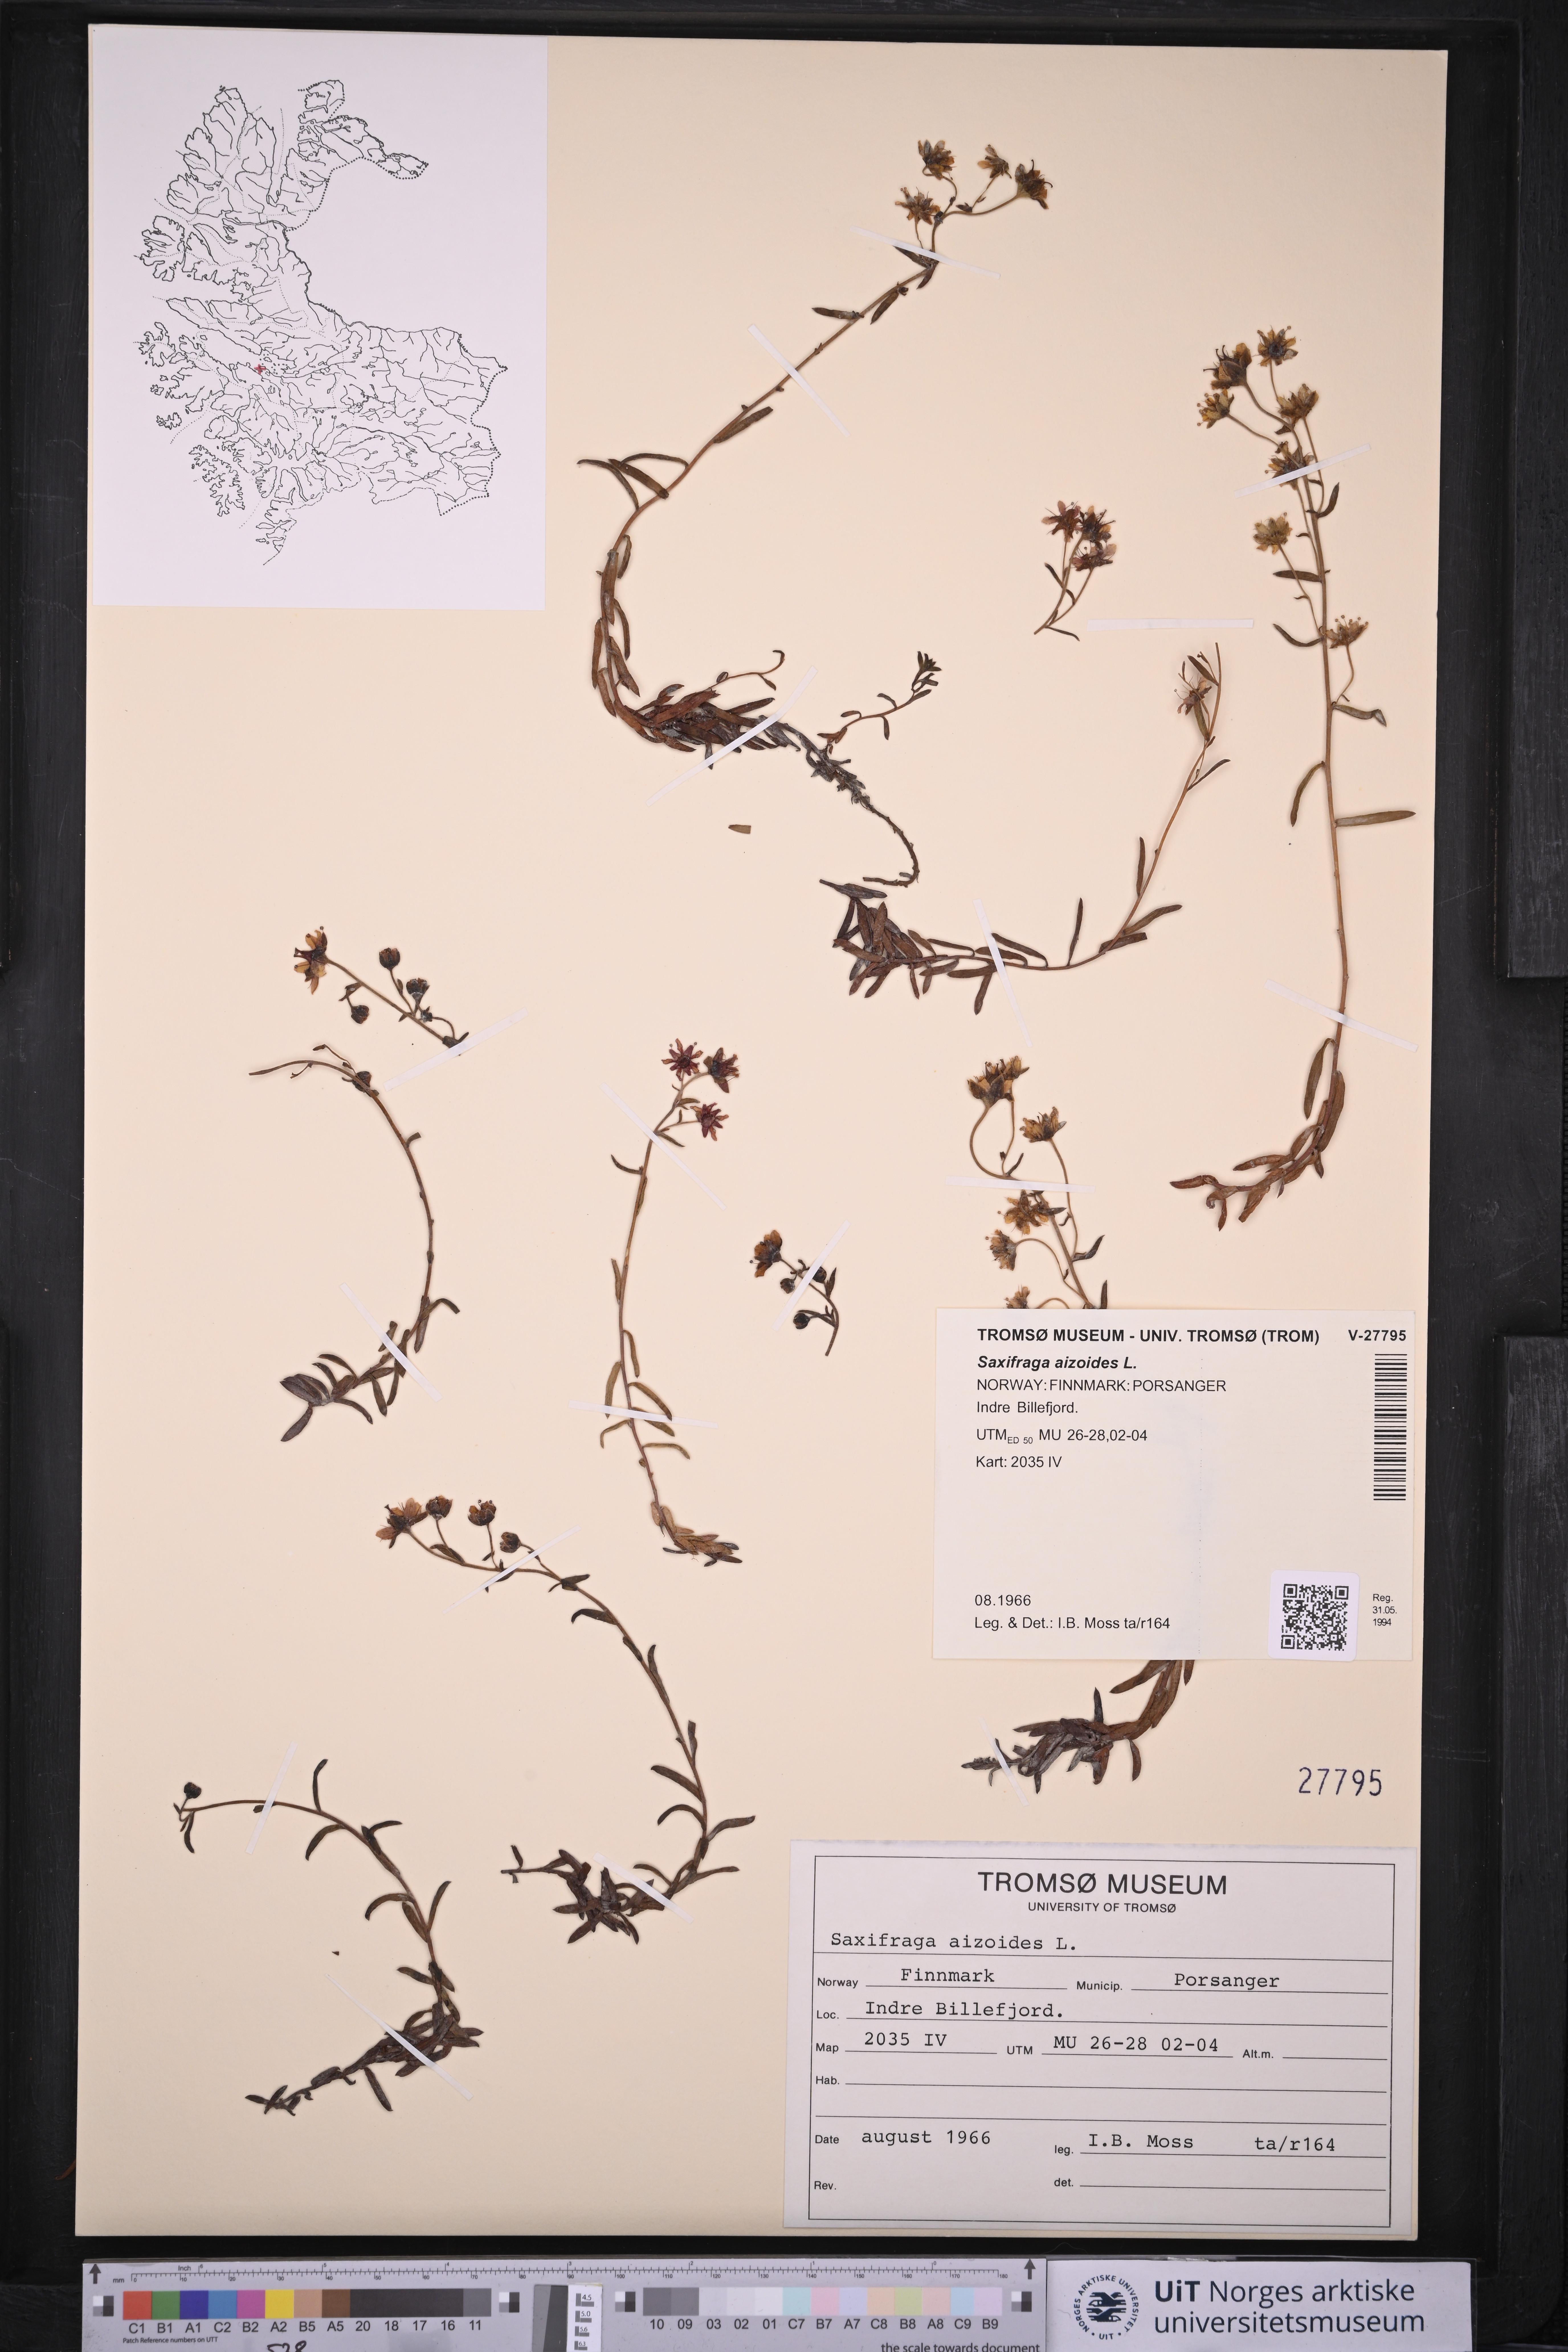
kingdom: Plantae
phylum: Tracheophyta
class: Magnoliopsida
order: Saxifragales
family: Saxifragaceae
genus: Saxifraga
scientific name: Saxifraga aizoides
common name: Yellow mountain saxifrage
